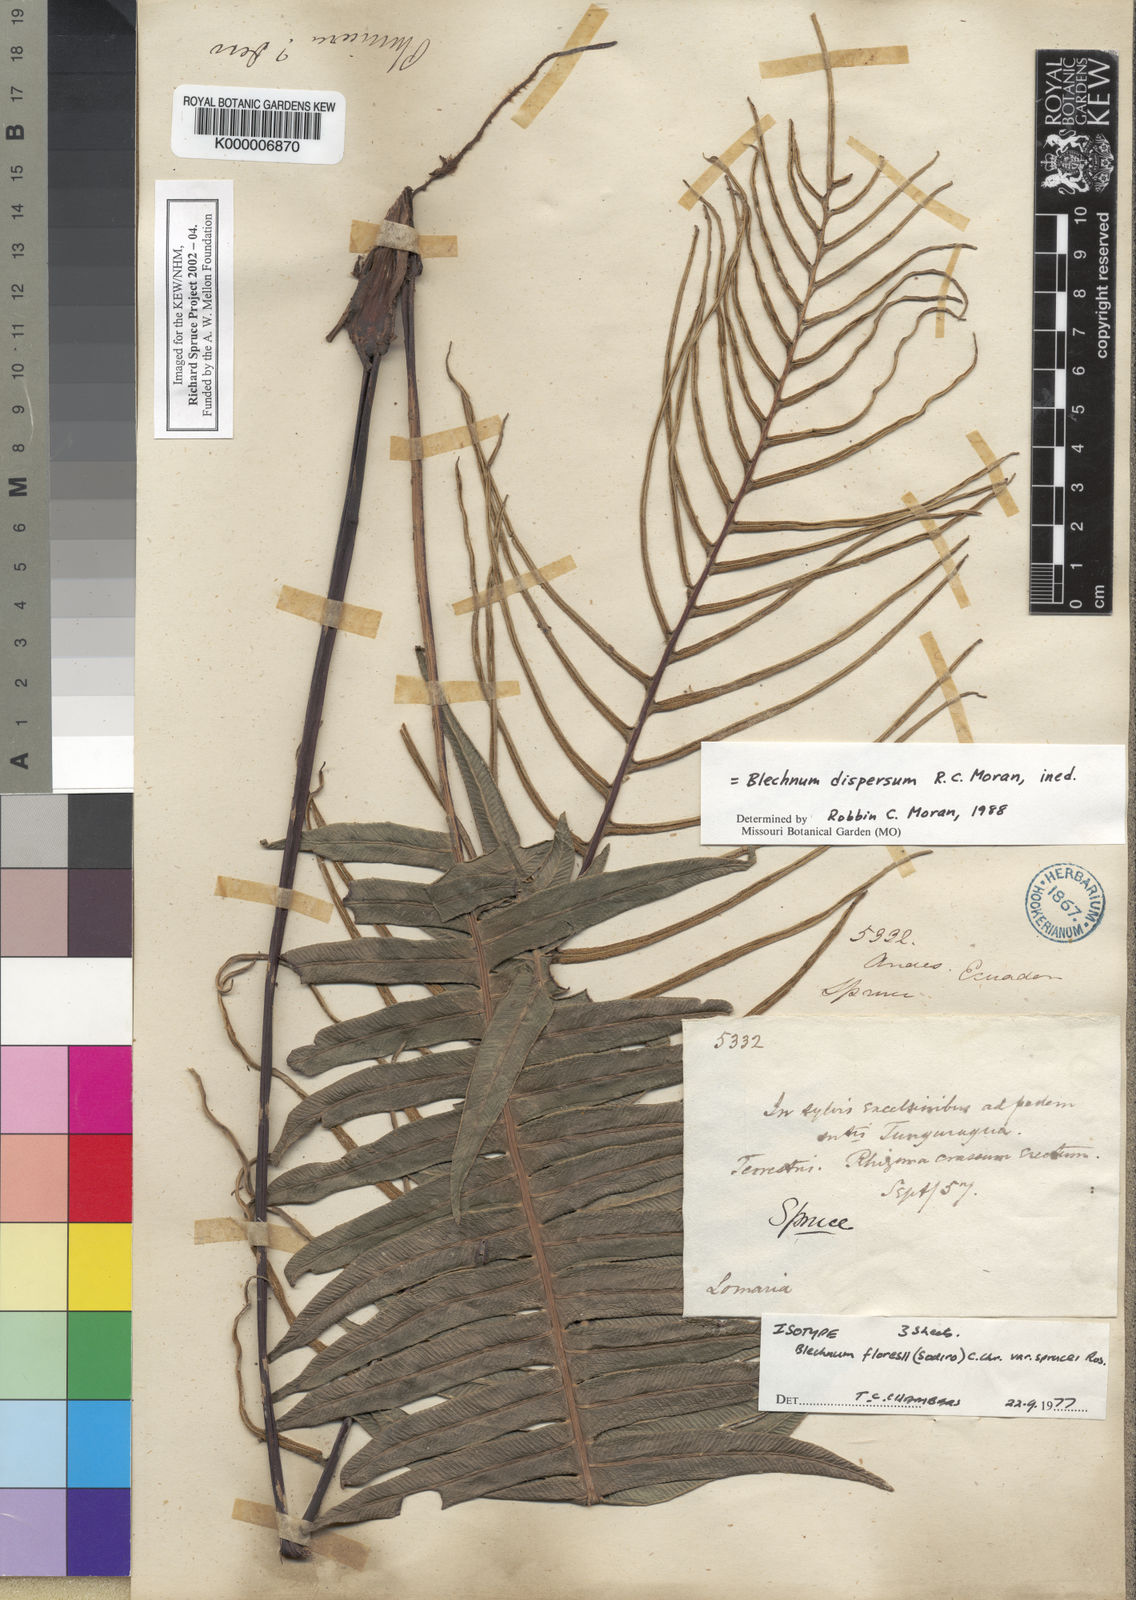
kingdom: Plantae
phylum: Tracheophyta
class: Polypodiopsida
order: Polypodiales
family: Blechnaceae
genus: Blechnum
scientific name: Blechnum
